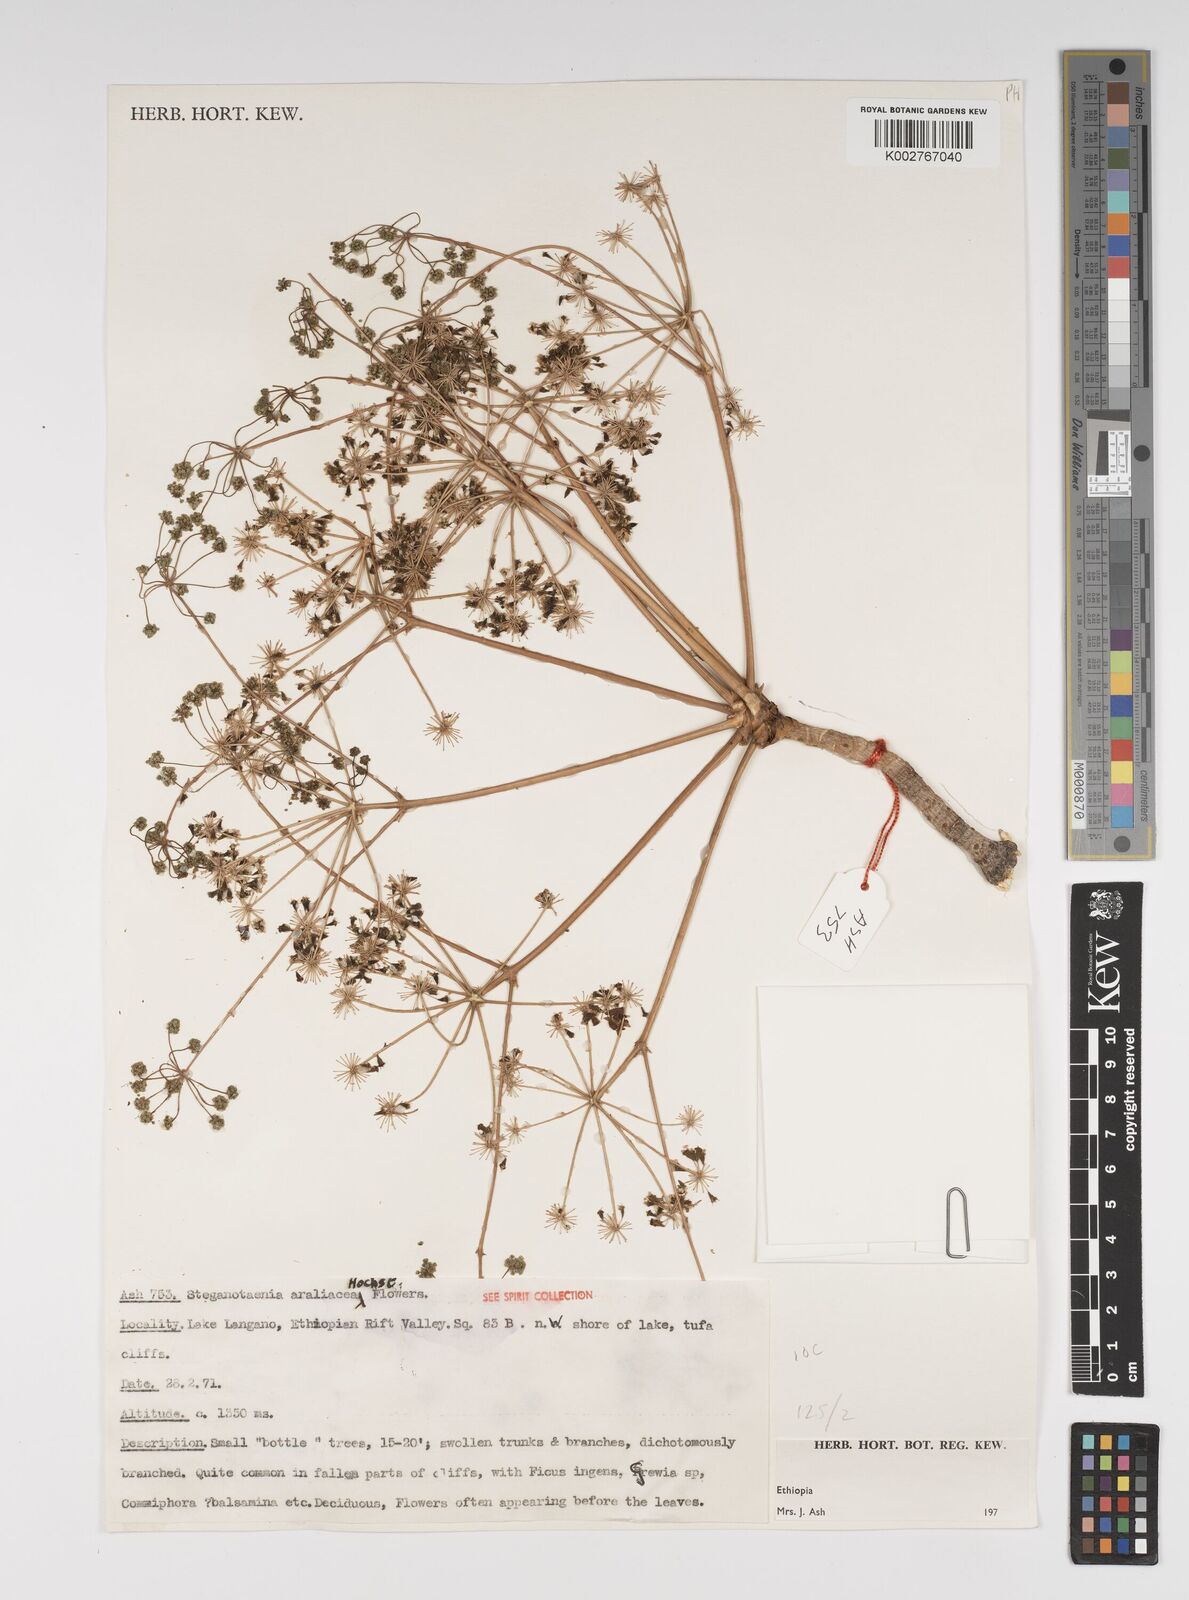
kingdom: Plantae
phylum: Tracheophyta
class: Magnoliopsida
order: Apiales
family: Apiaceae
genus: Steganotaenia
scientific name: Steganotaenia araliacea
